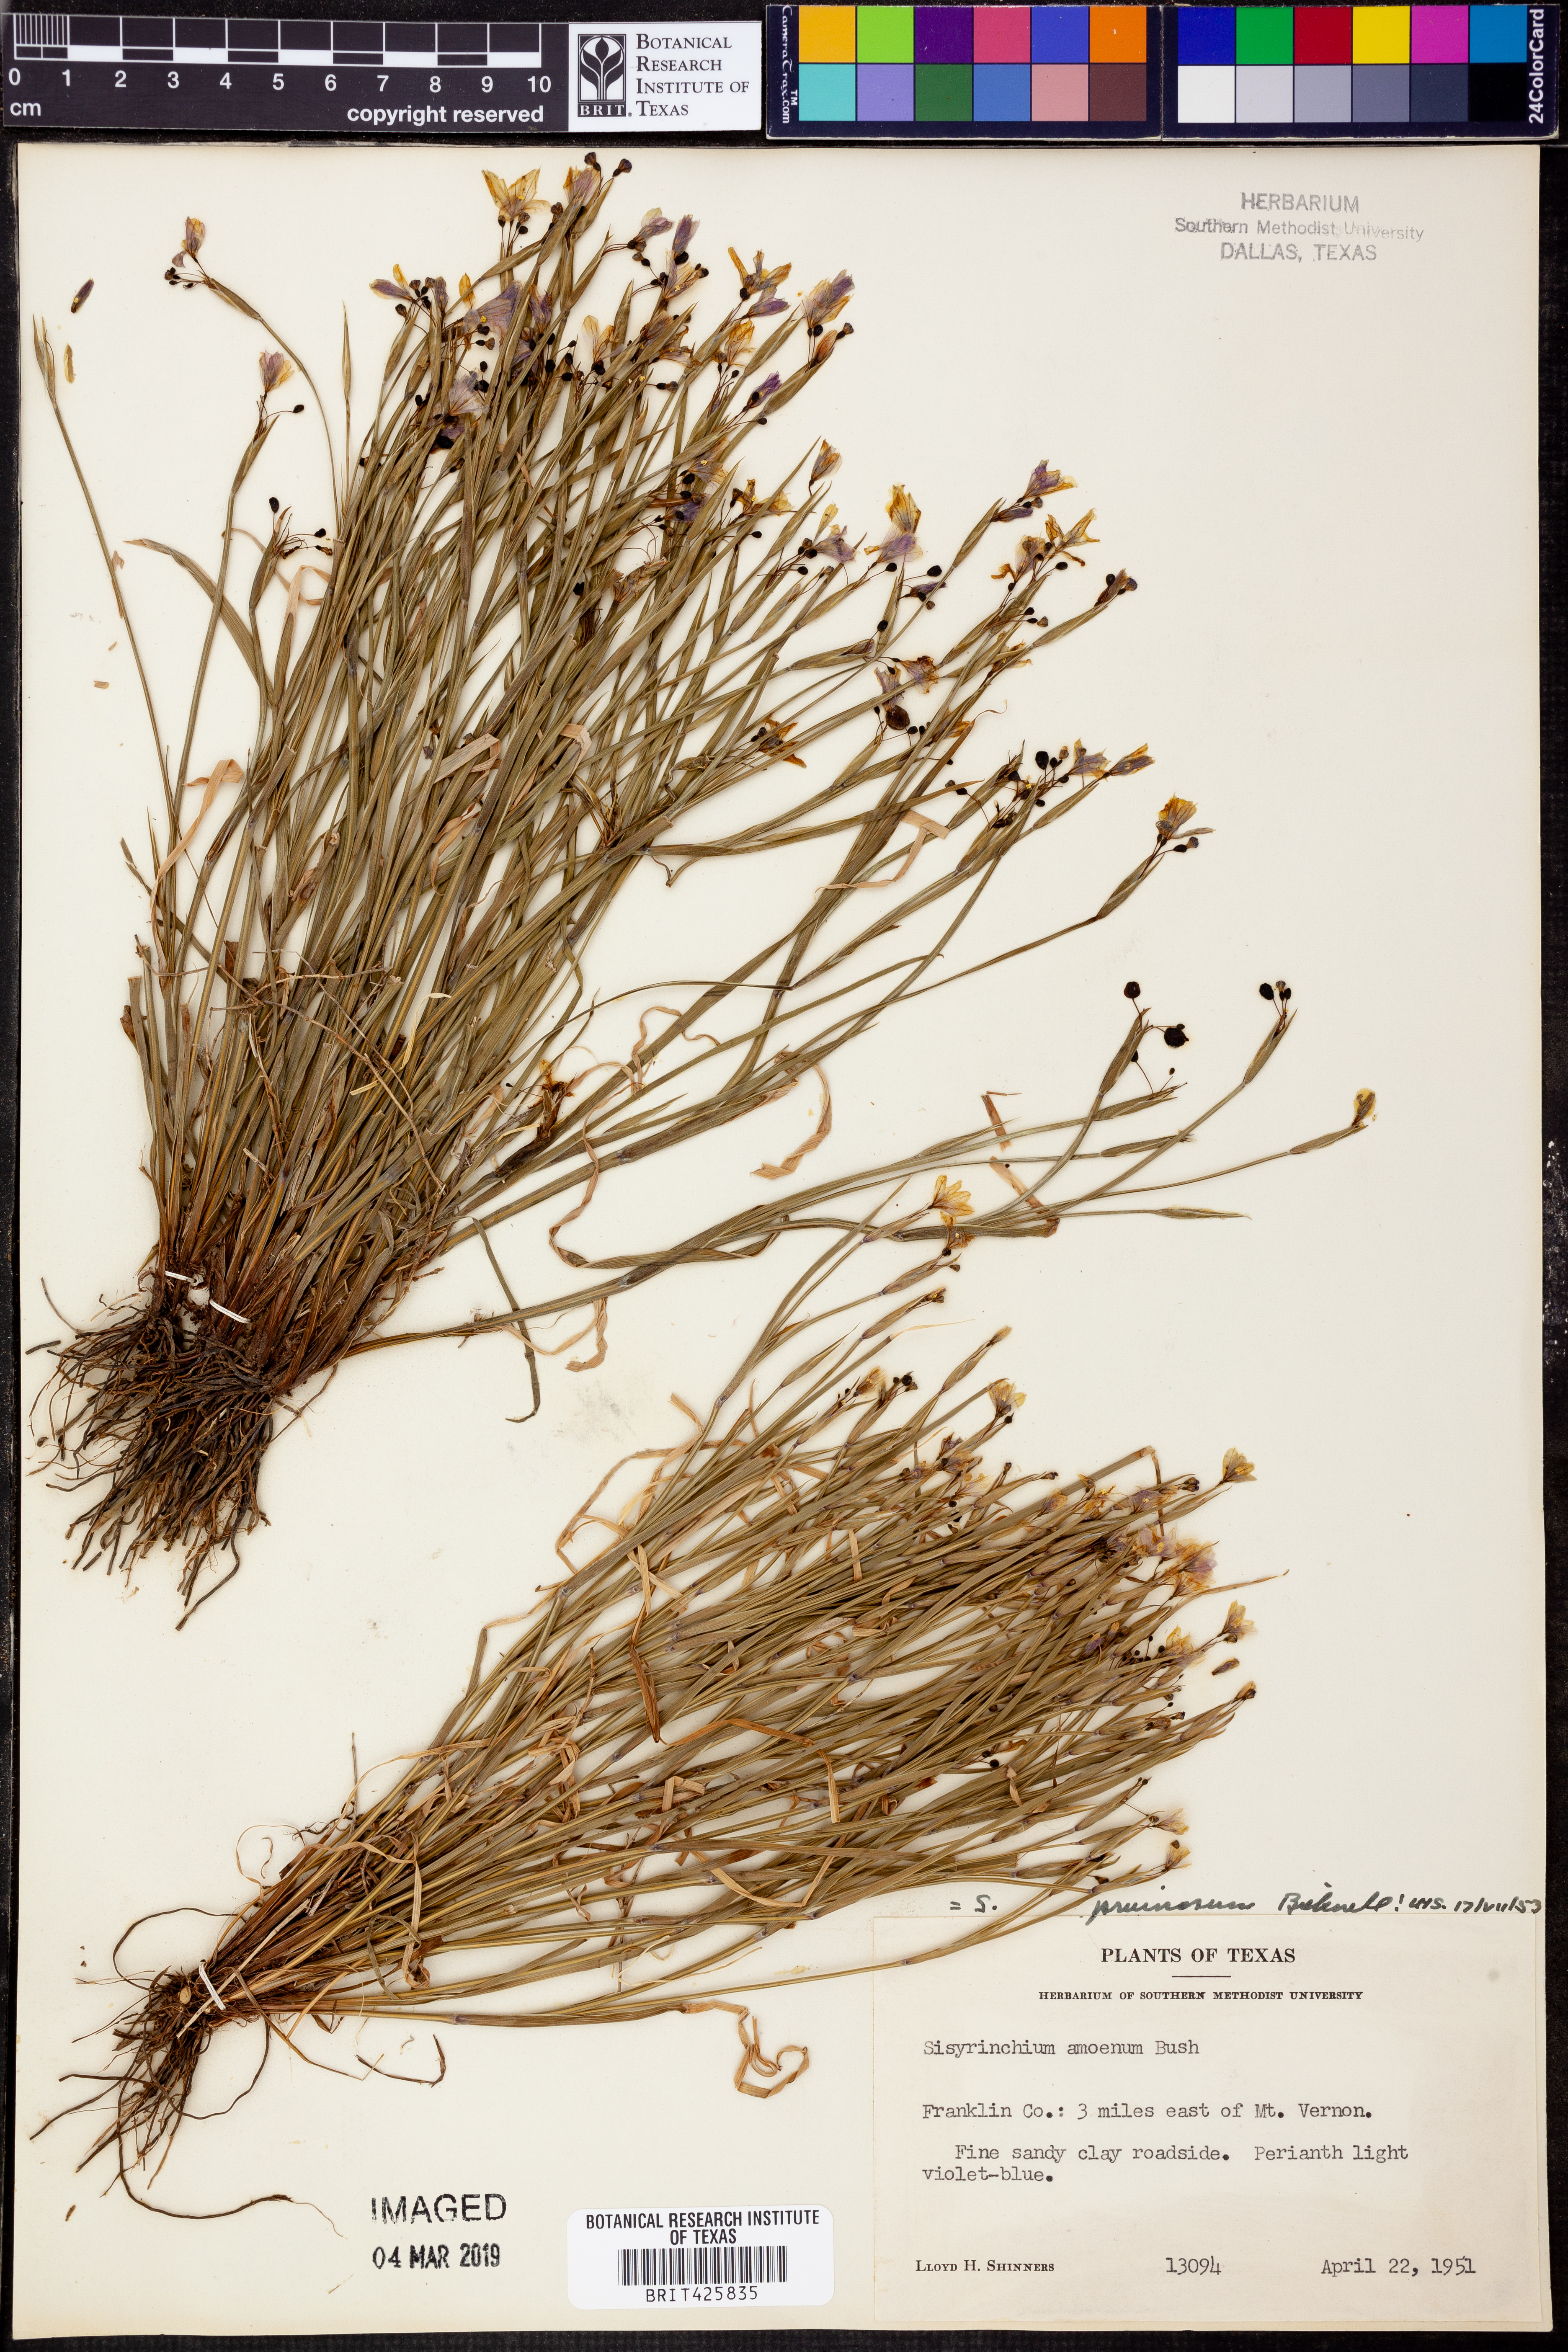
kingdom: Plantae
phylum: Tracheophyta
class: Liliopsida
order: Asparagales
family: Iridaceae
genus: Sisyrinchium
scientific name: Sisyrinchium ensigerum
